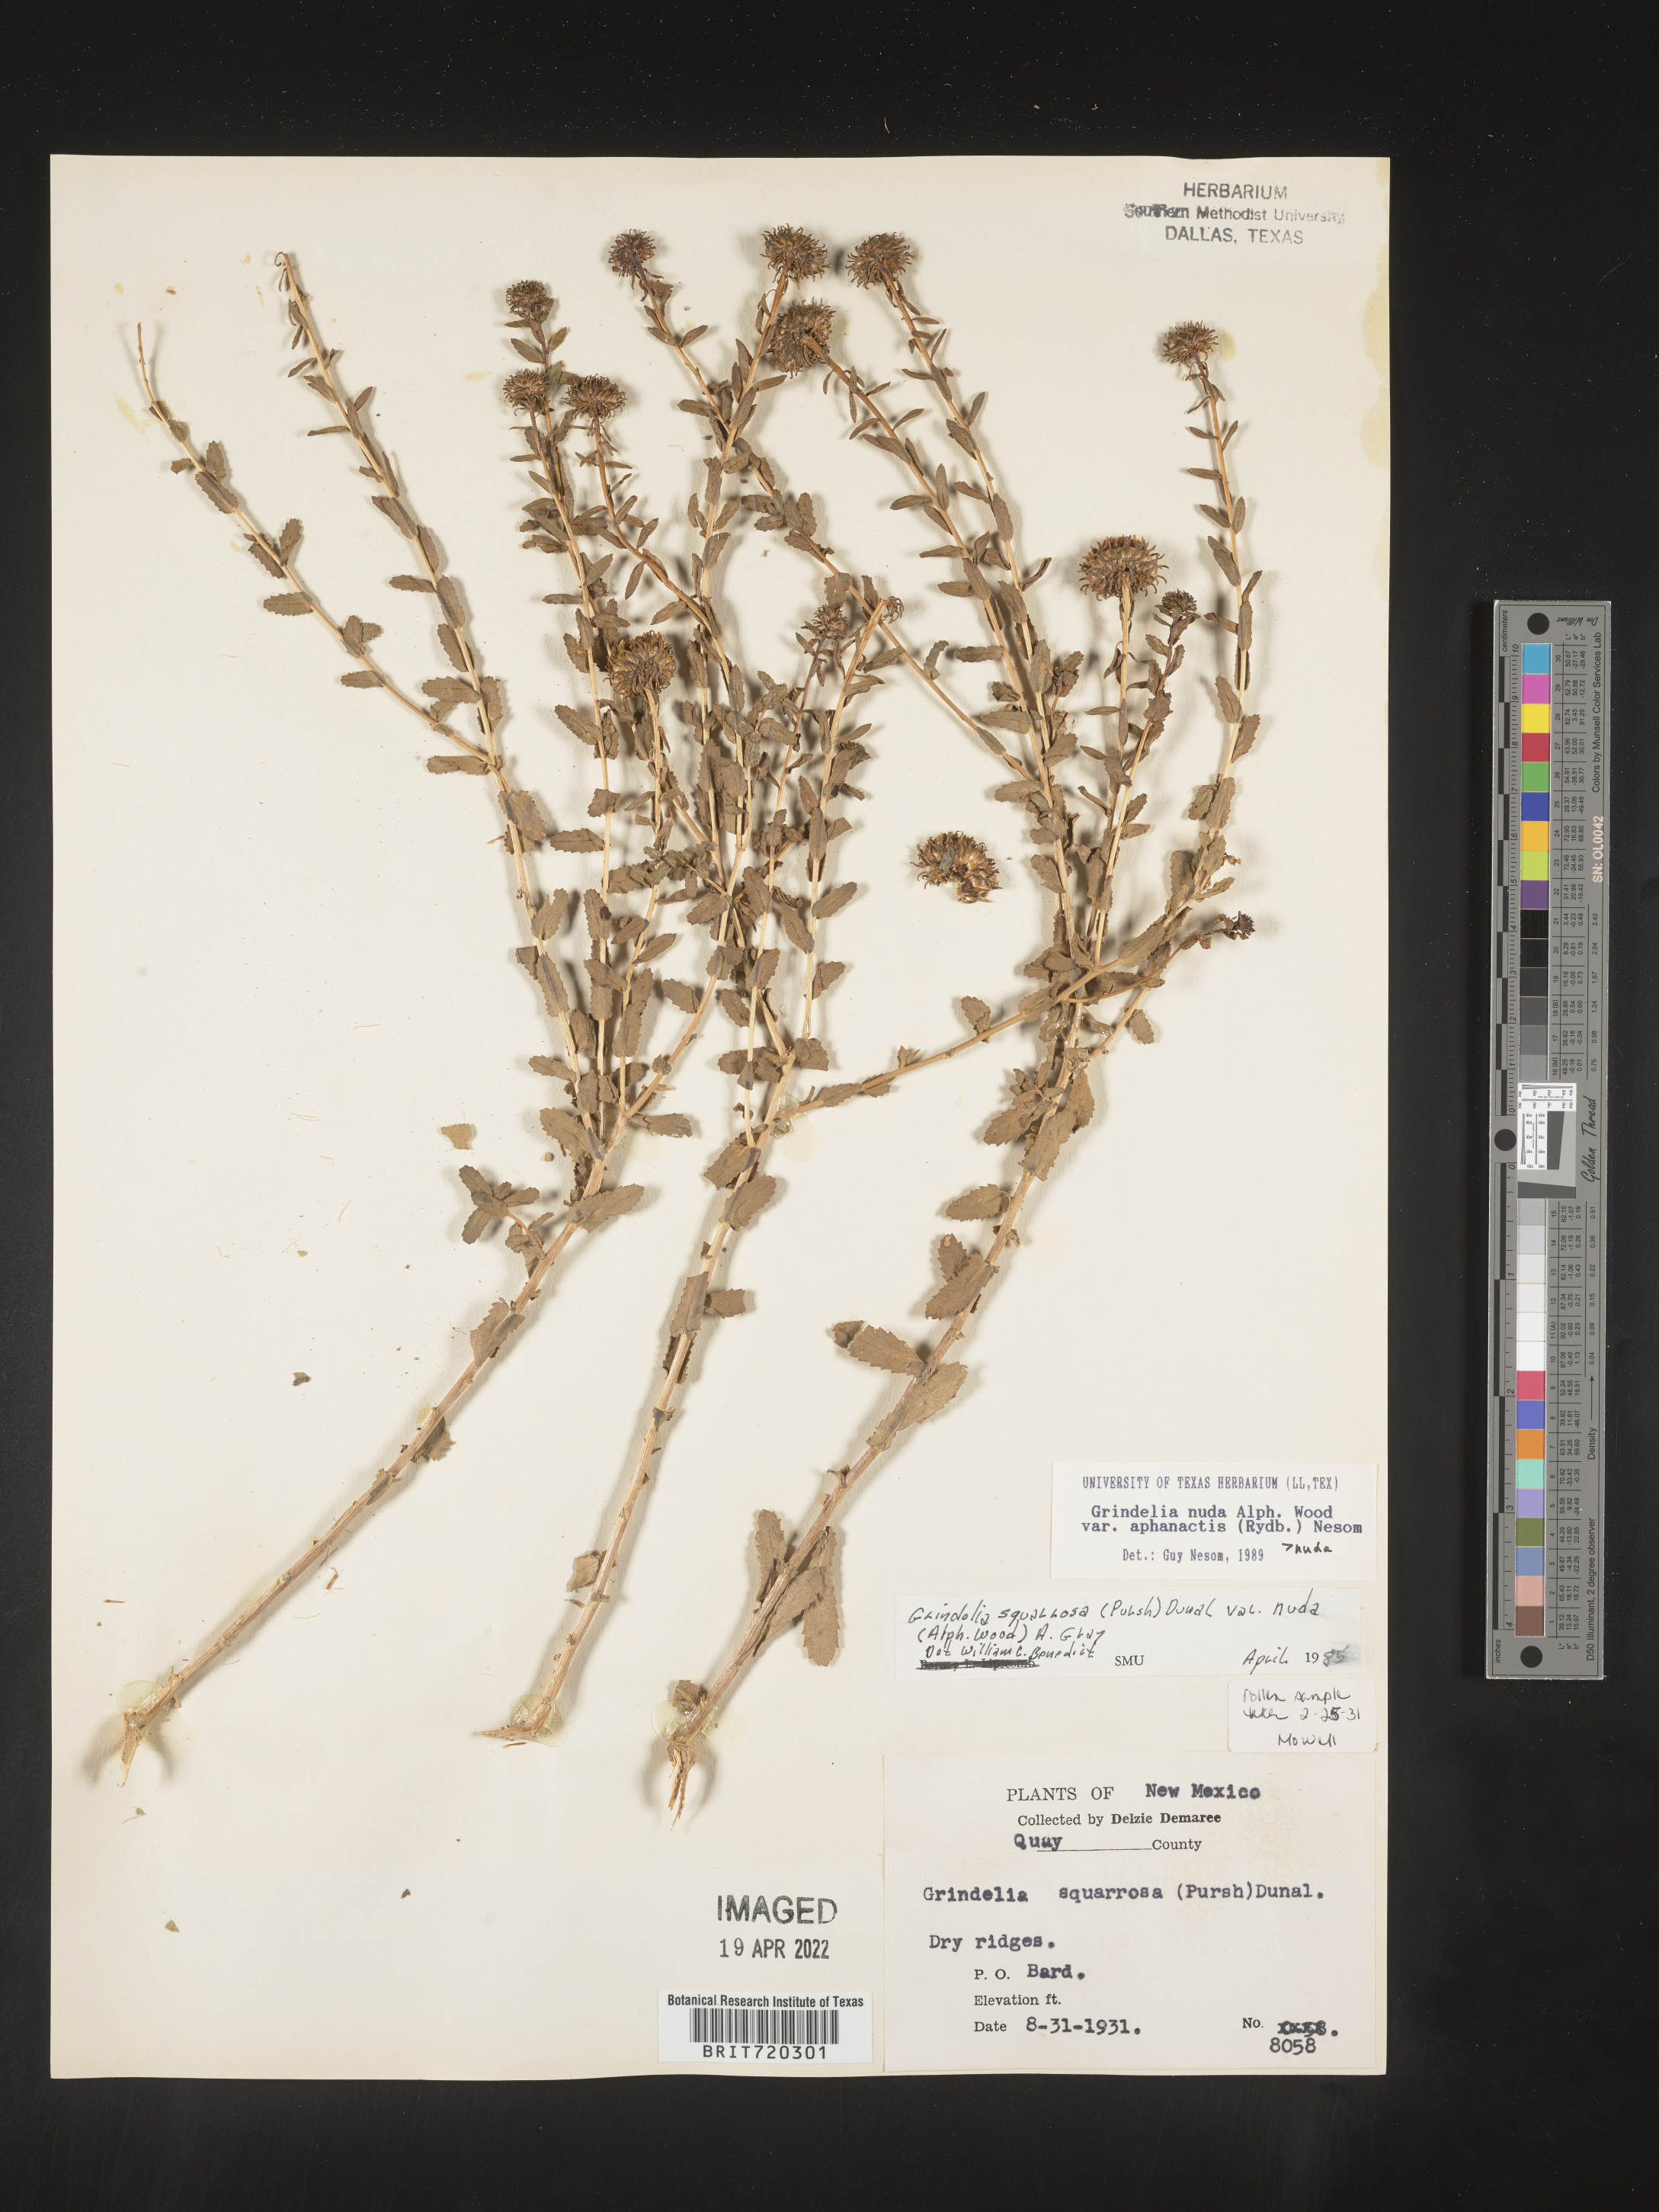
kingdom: Plantae
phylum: Tracheophyta
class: Magnoliopsida
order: Asterales
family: Asteraceae
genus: Grindelia
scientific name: Grindelia nuda
